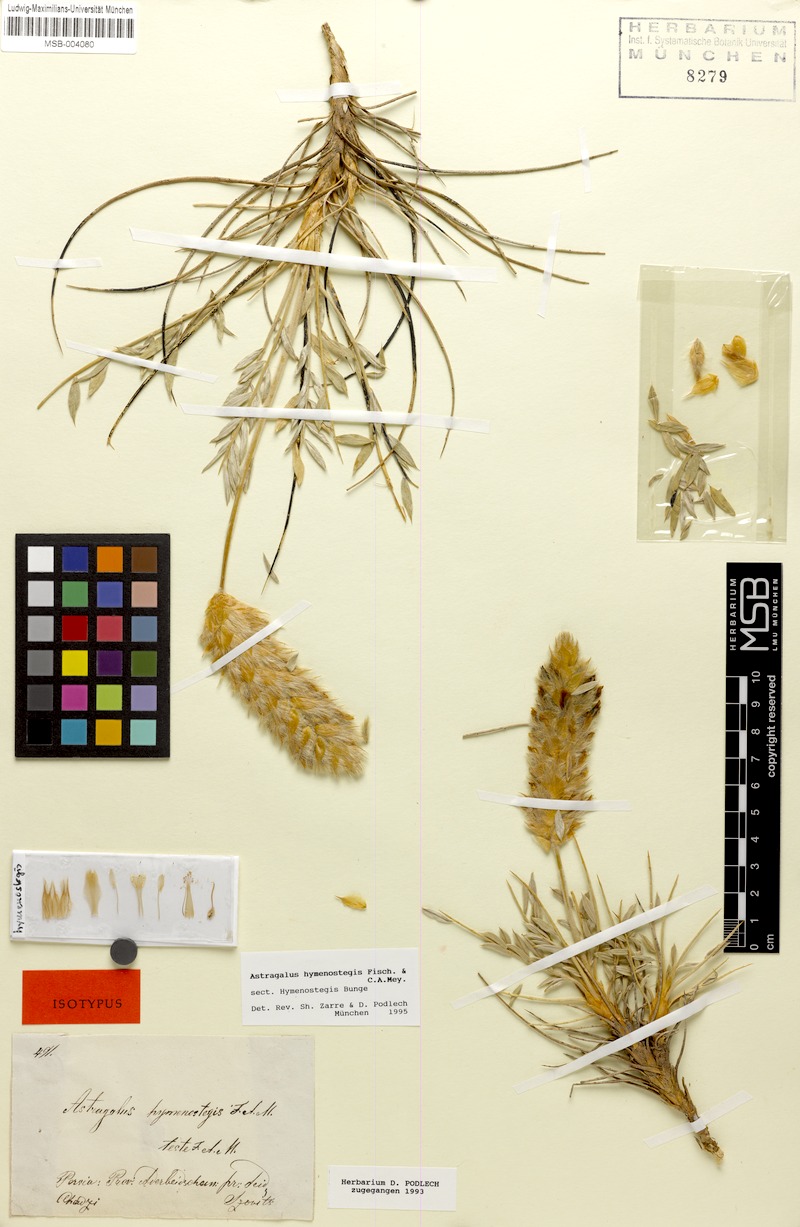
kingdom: Plantae
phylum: Tracheophyta
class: Magnoliopsida
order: Fabales
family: Fabaceae
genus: Astragalus
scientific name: Astragalus hymenostegis
